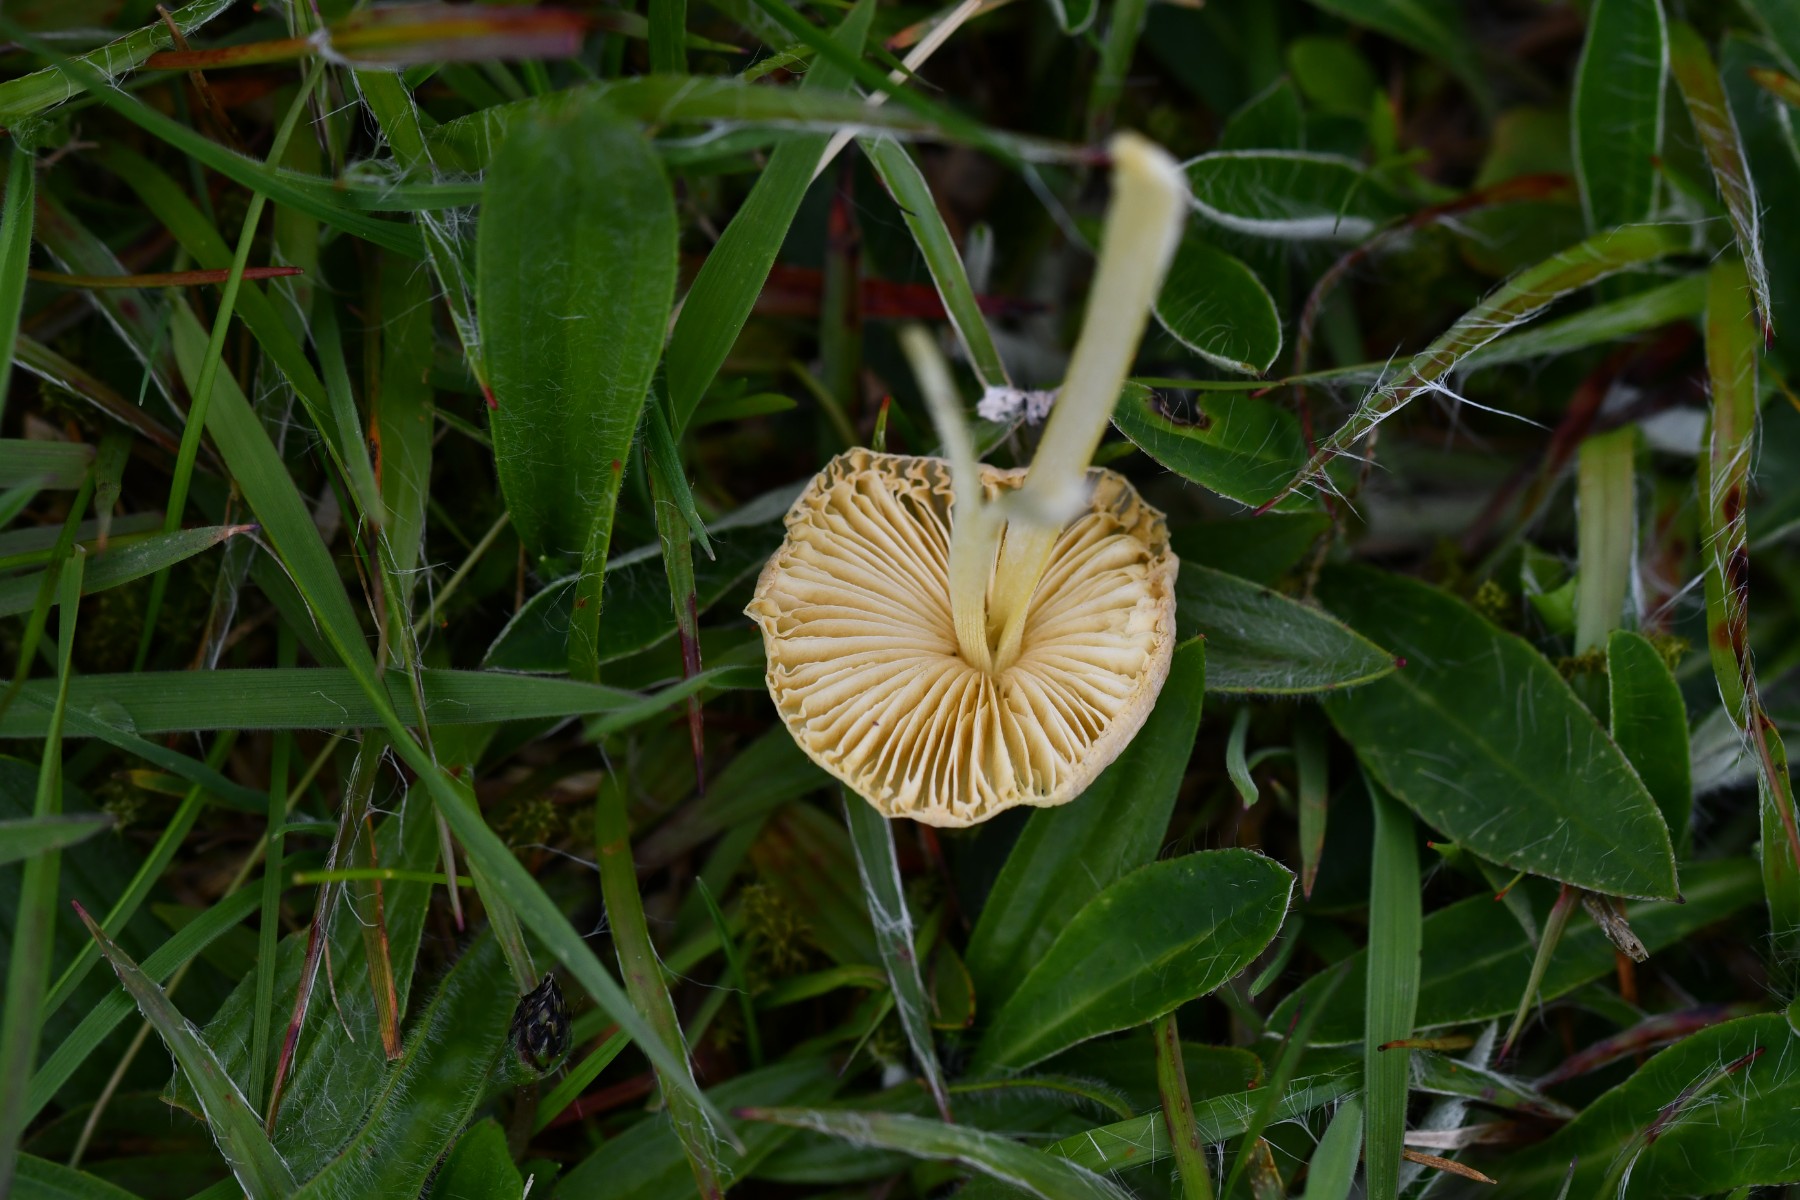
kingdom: Fungi
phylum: Basidiomycota
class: Agaricomycetes
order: Agaricales
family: Bolbitiaceae
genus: Bolbitius
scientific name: Bolbitius titubans
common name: almindelig gulhat
